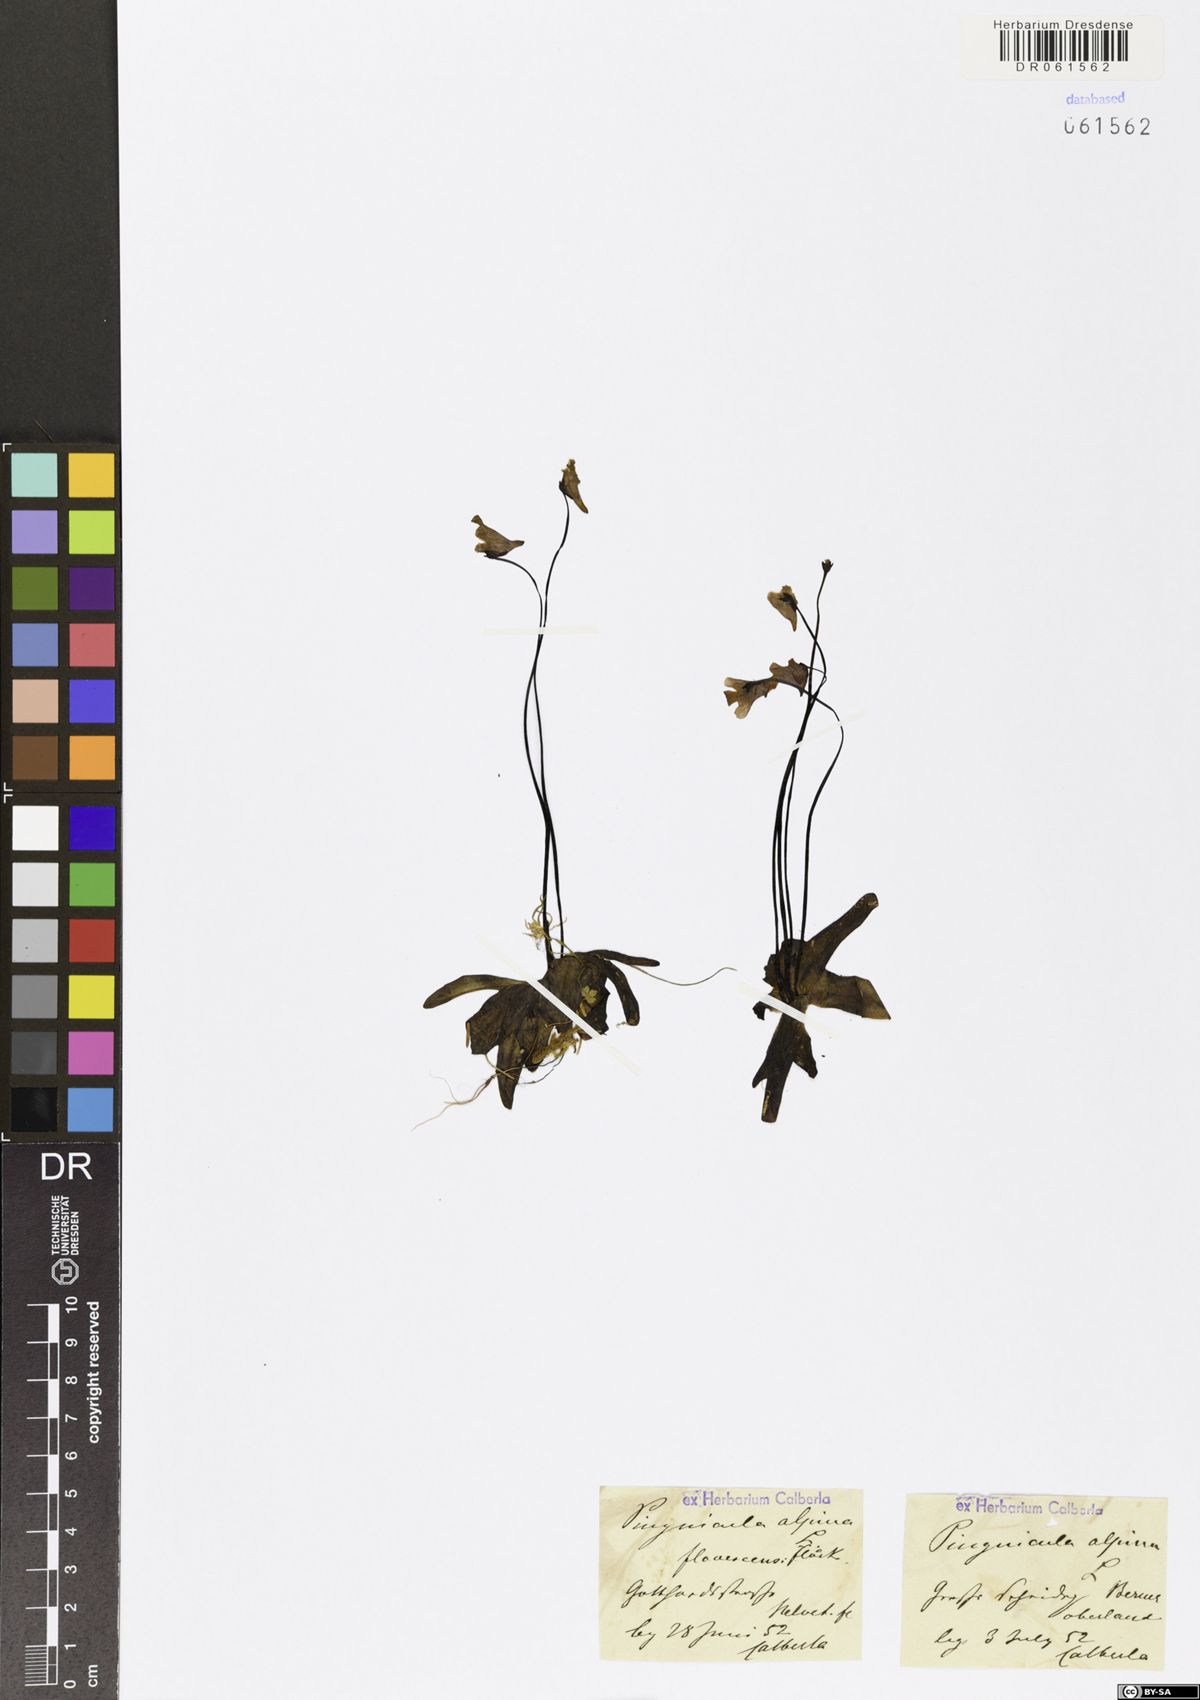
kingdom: Plantae
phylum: Tracheophyta
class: Magnoliopsida
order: Lamiales
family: Lentibulariaceae
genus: Pinguicula
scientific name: Pinguicula alpina
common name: Alpine butterwort
